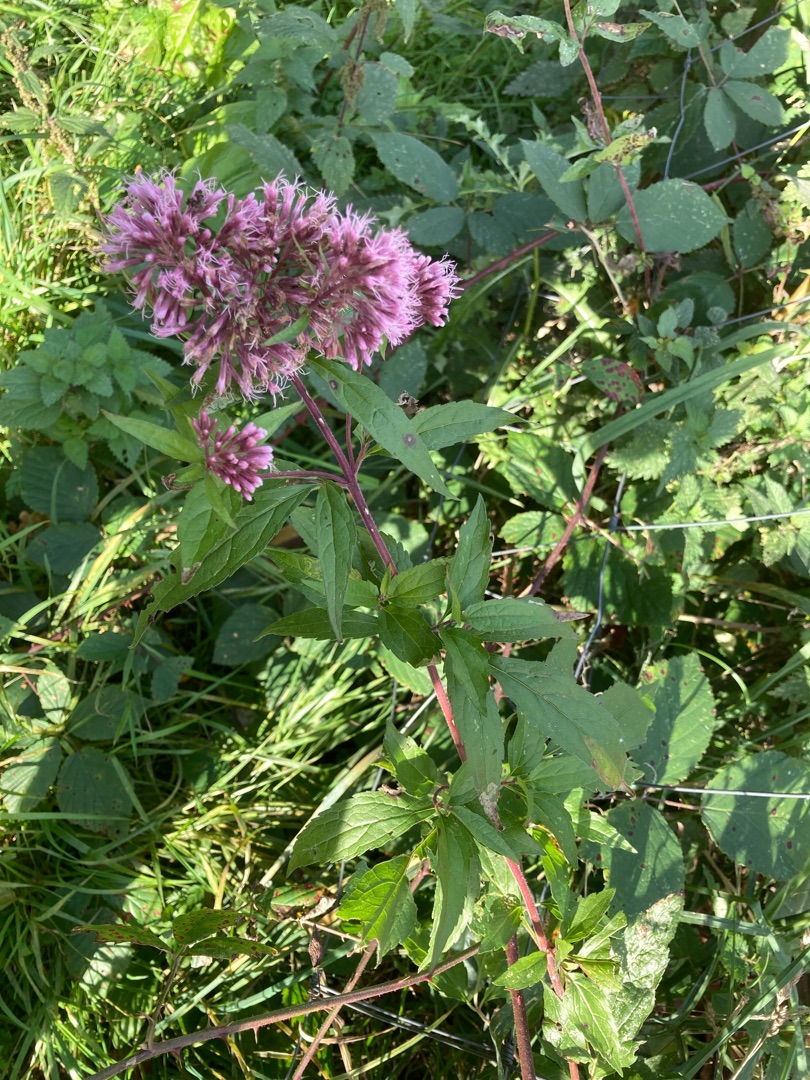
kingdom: Plantae
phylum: Tracheophyta
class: Magnoliopsida
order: Asterales
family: Asteraceae
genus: Eupatorium
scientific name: Eupatorium cannabinum
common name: Hjortetrøst
